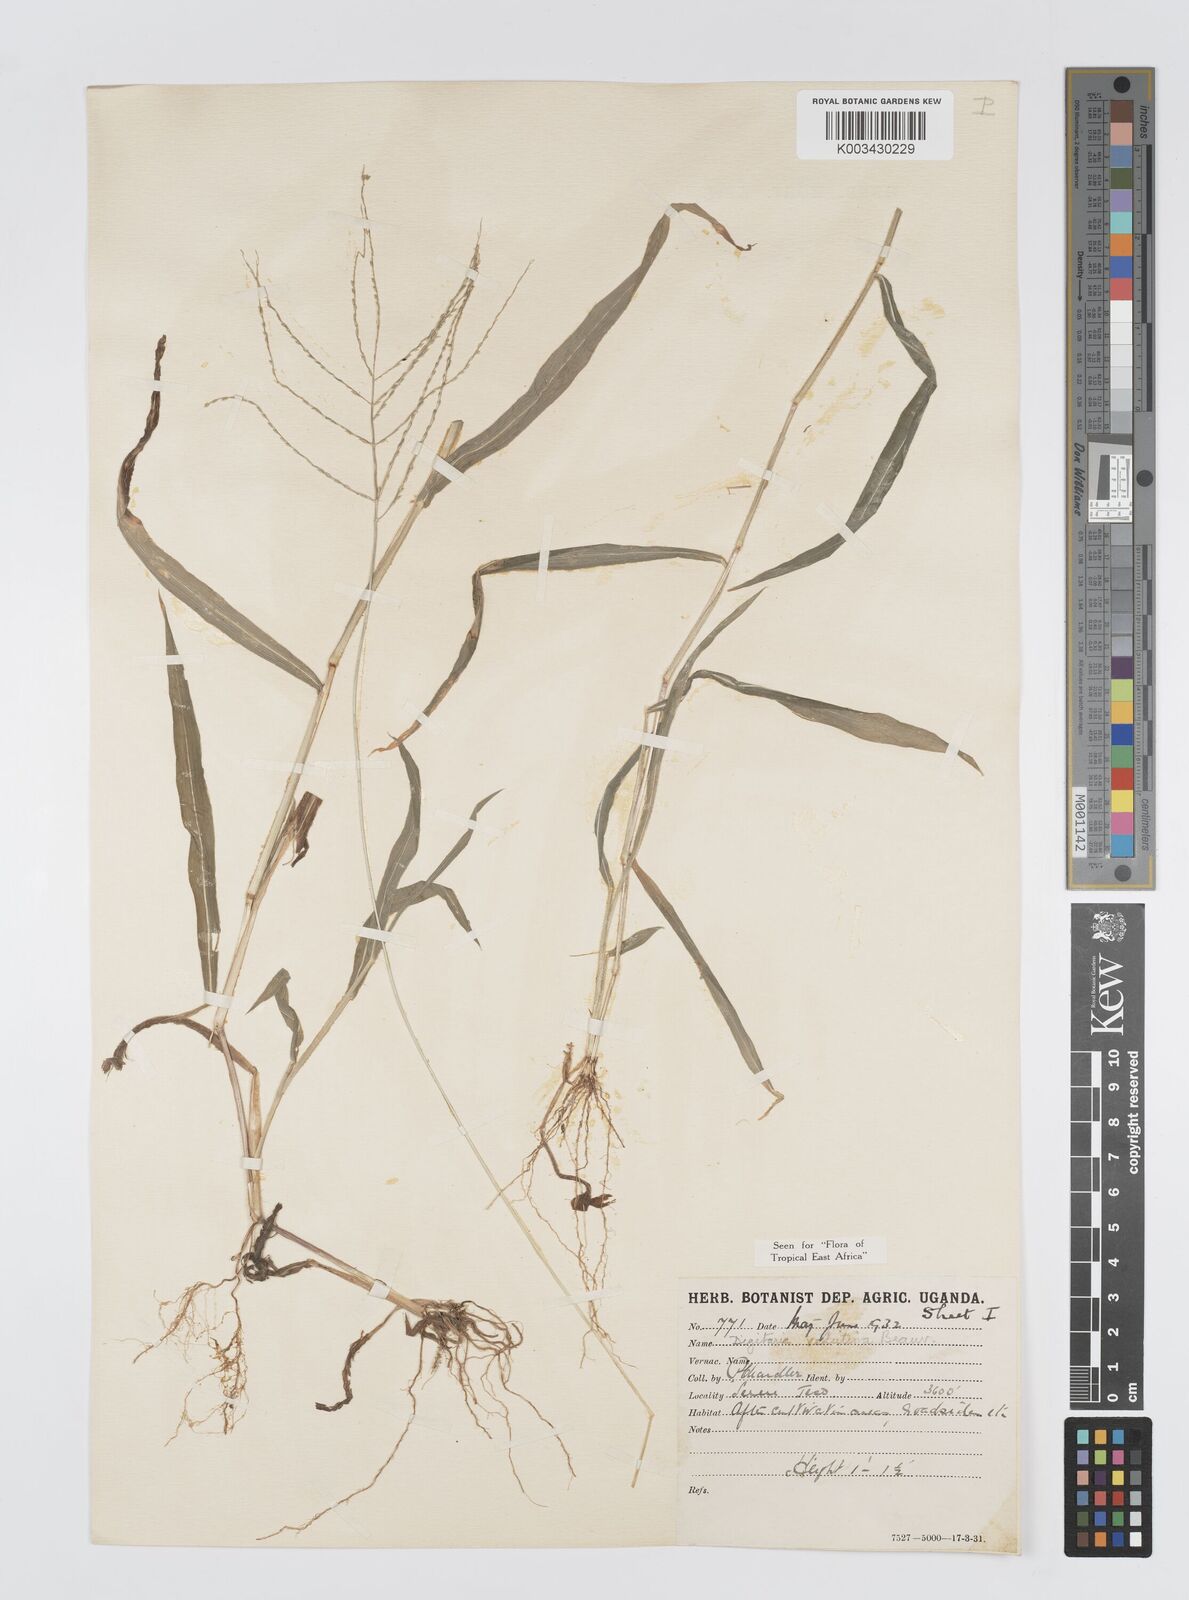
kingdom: Plantae
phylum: Tracheophyta
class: Liliopsida
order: Poales
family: Poaceae
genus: Digitaria
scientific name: Digitaria velutina
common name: Long-plume finger grass
